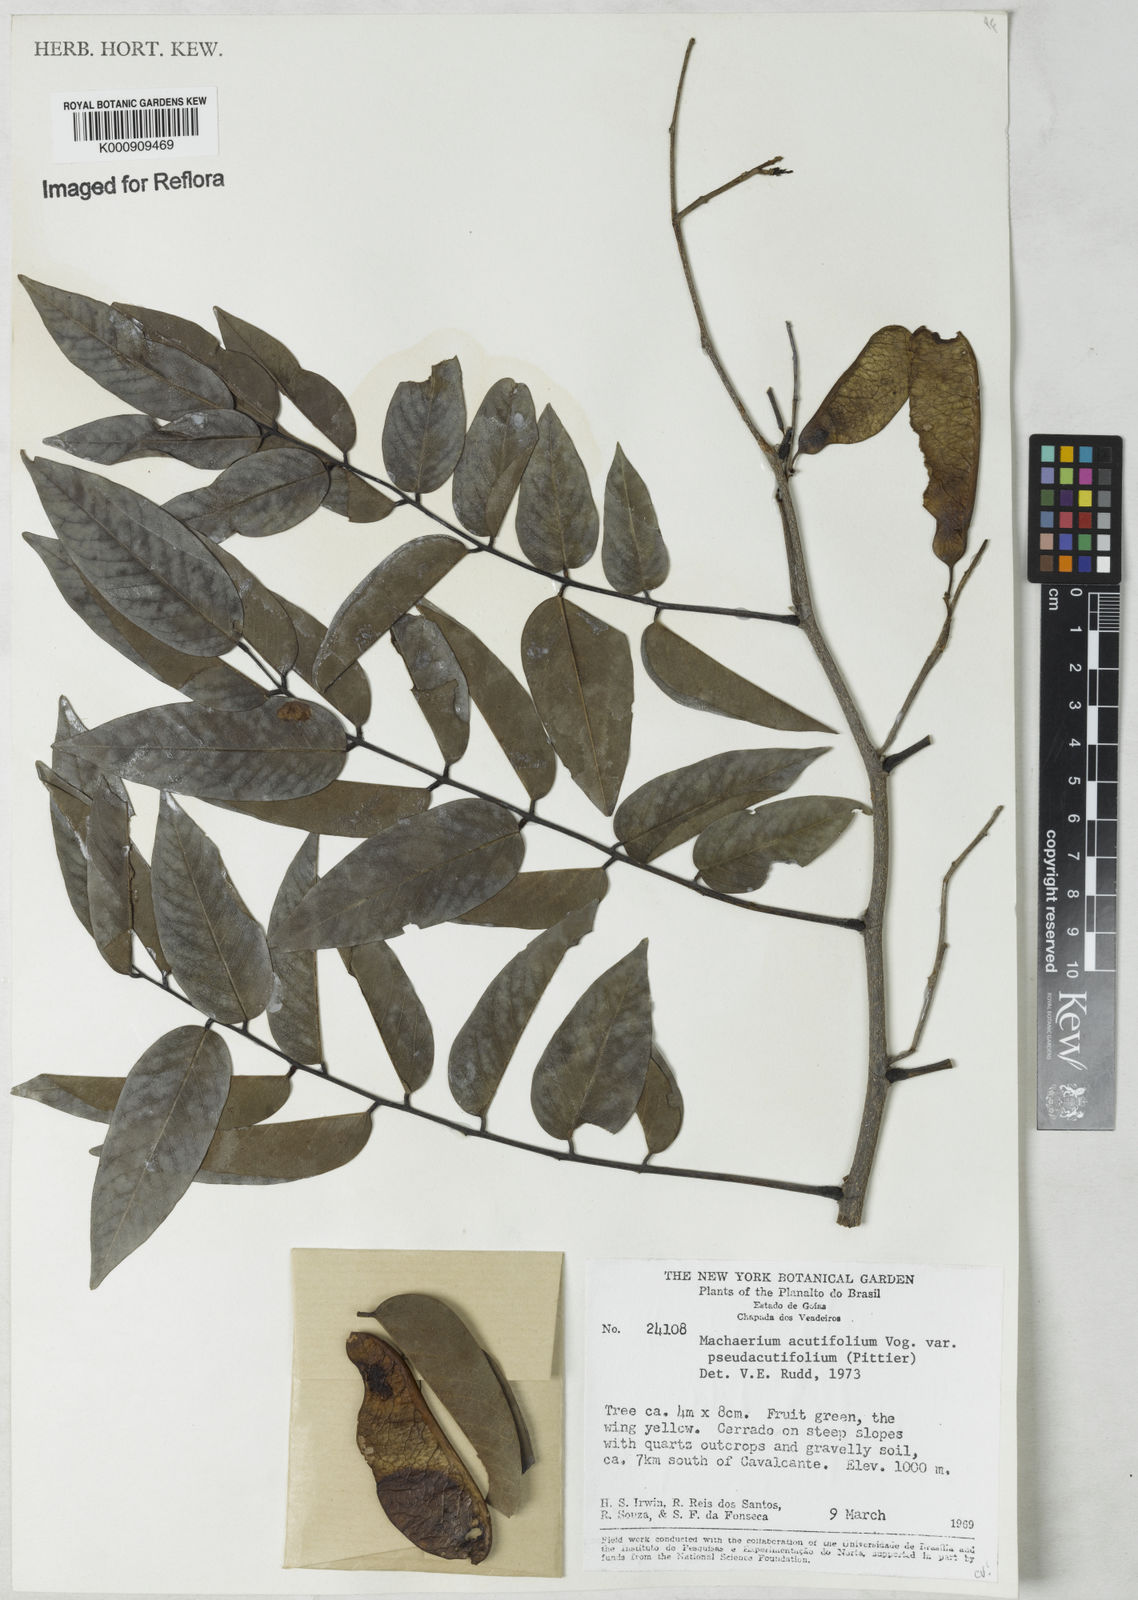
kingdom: Plantae
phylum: Tracheophyta
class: Magnoliopsida
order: Fabales
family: Fabaceae
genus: Machaerium
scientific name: Machaerium acutifolium
